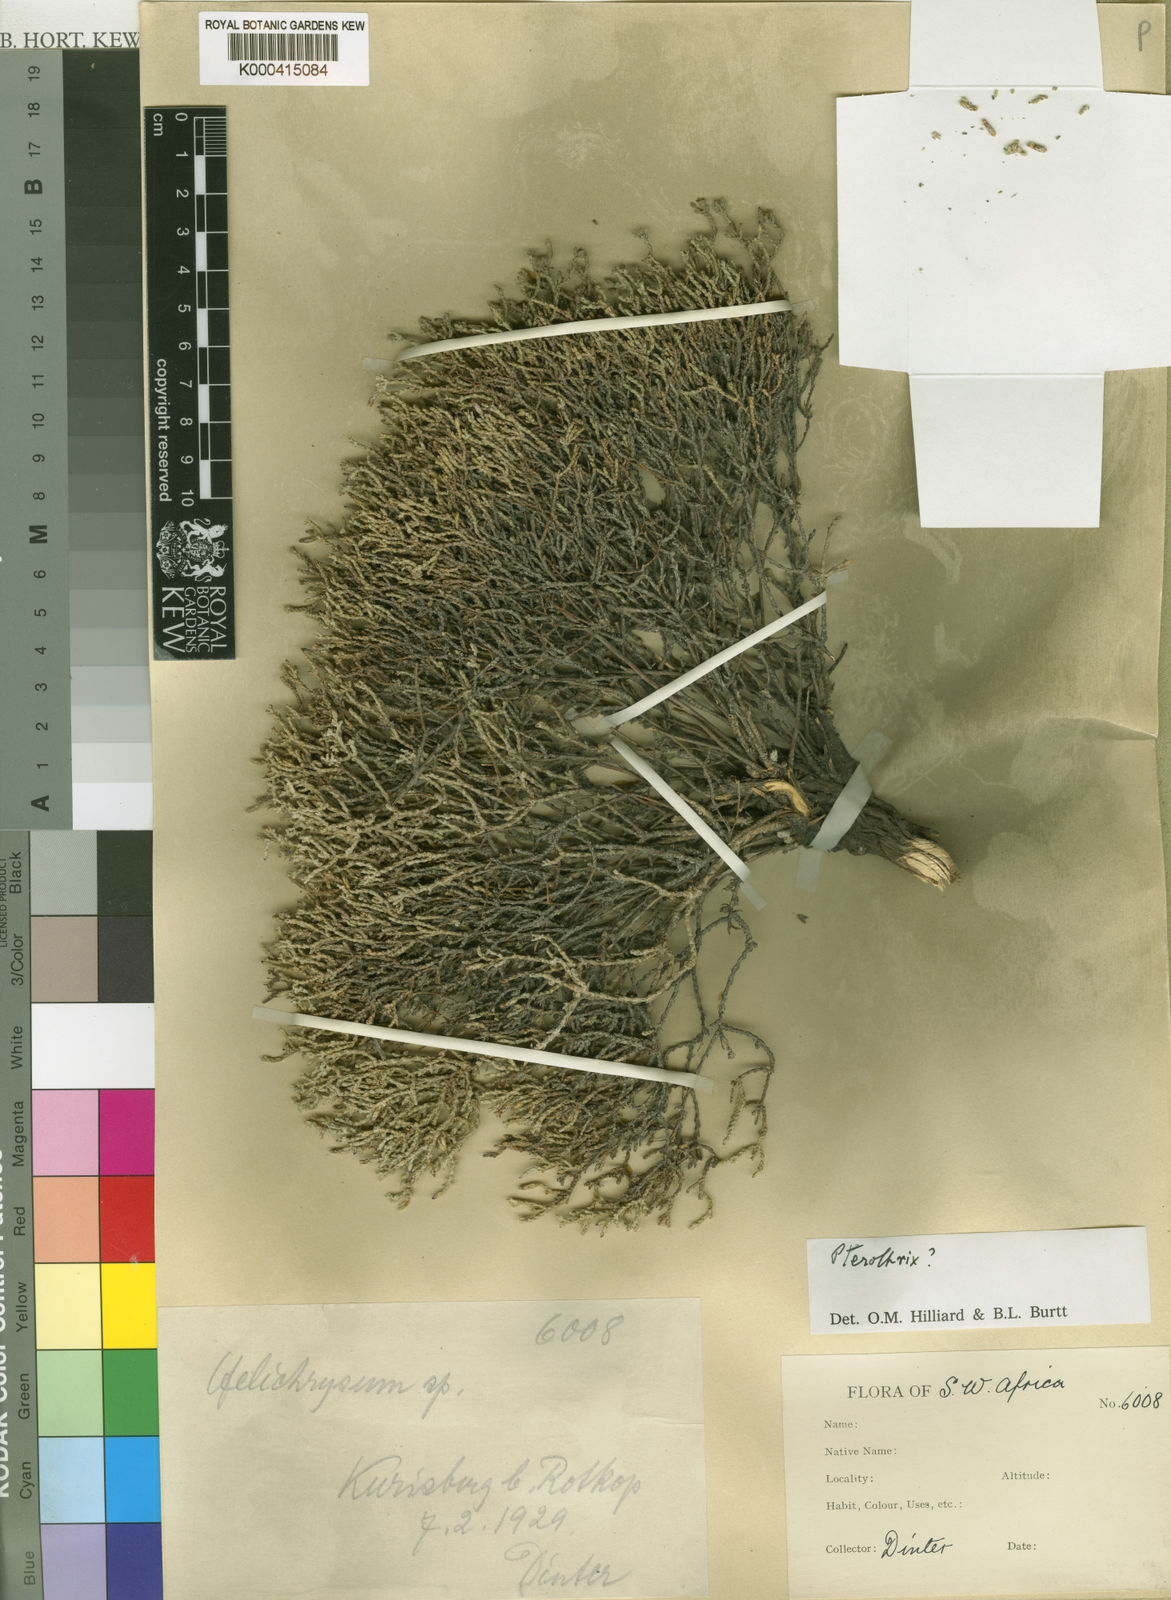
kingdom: Plantae
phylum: Tracheophyta
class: Magnoliopsida
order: Asterales
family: Asteraceae
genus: Amphiglossa
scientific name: Amphiglossa thuja
